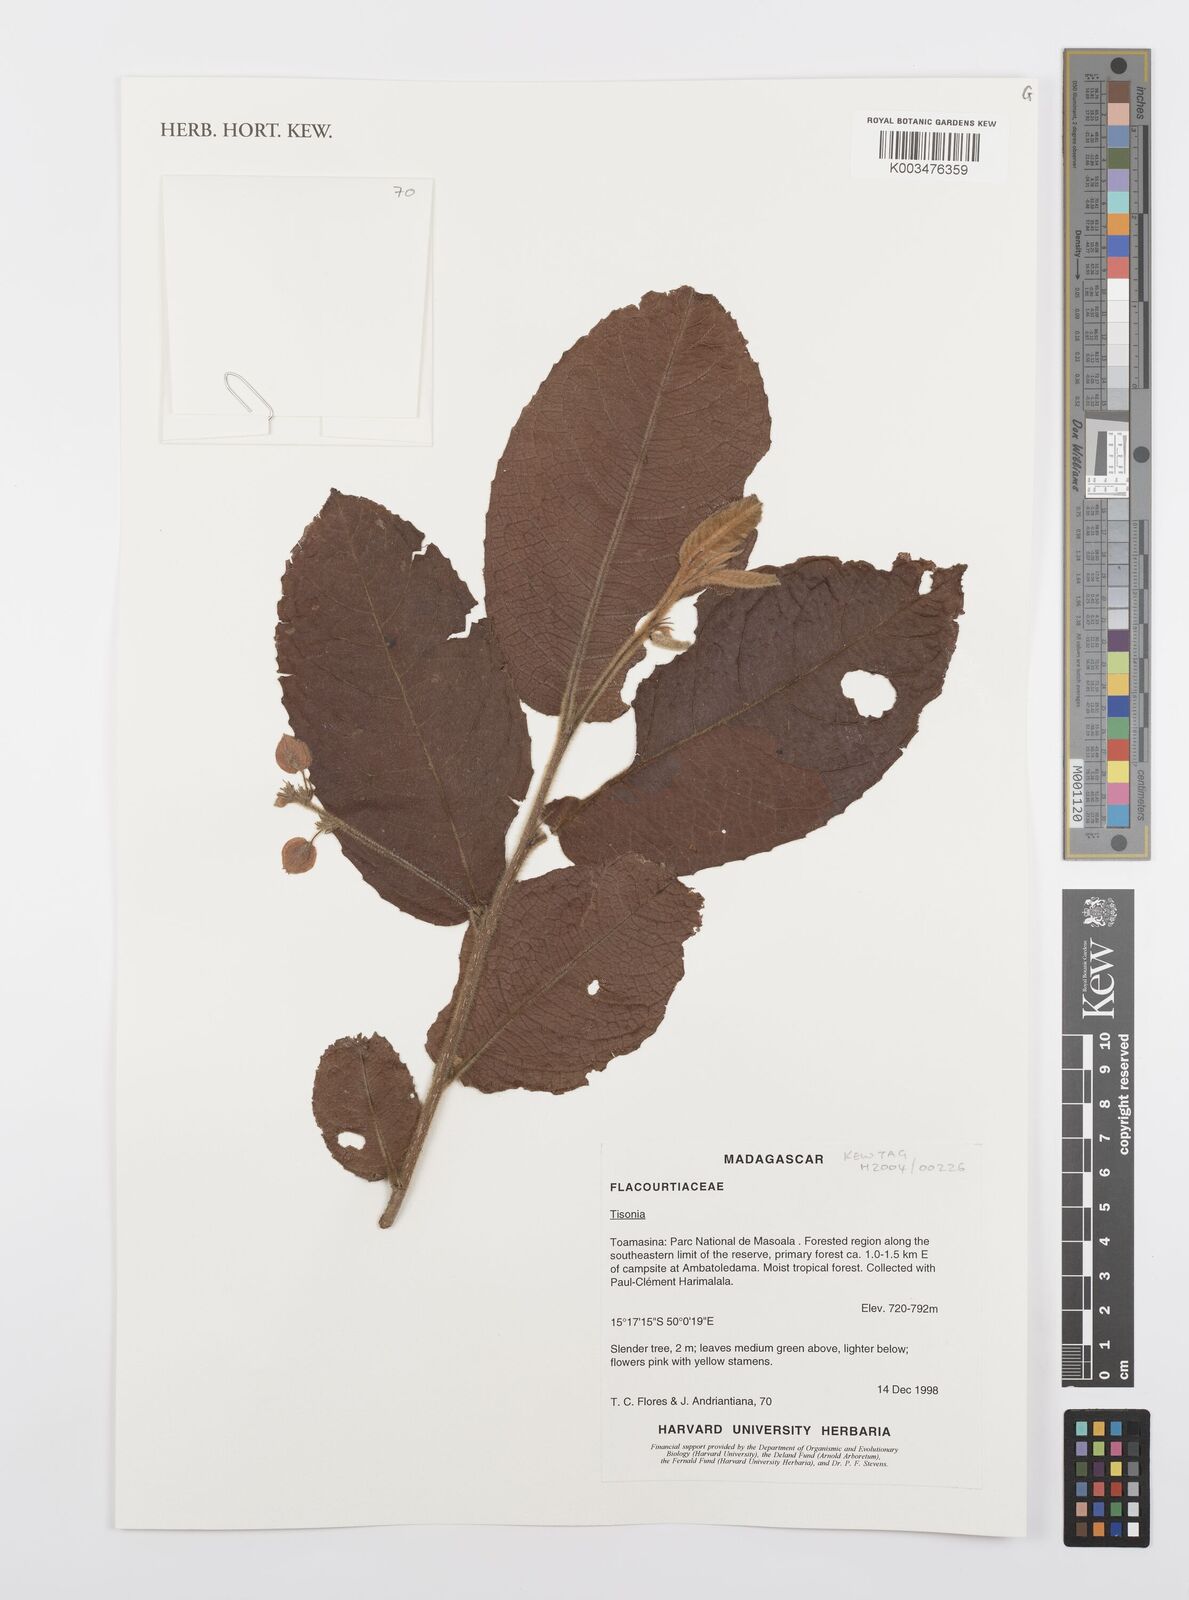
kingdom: Plantae
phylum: Tracheophyta
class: Magnoliopsida
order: Malpighiales
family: Salicaceae
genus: Tisonia
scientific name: Tisonia
